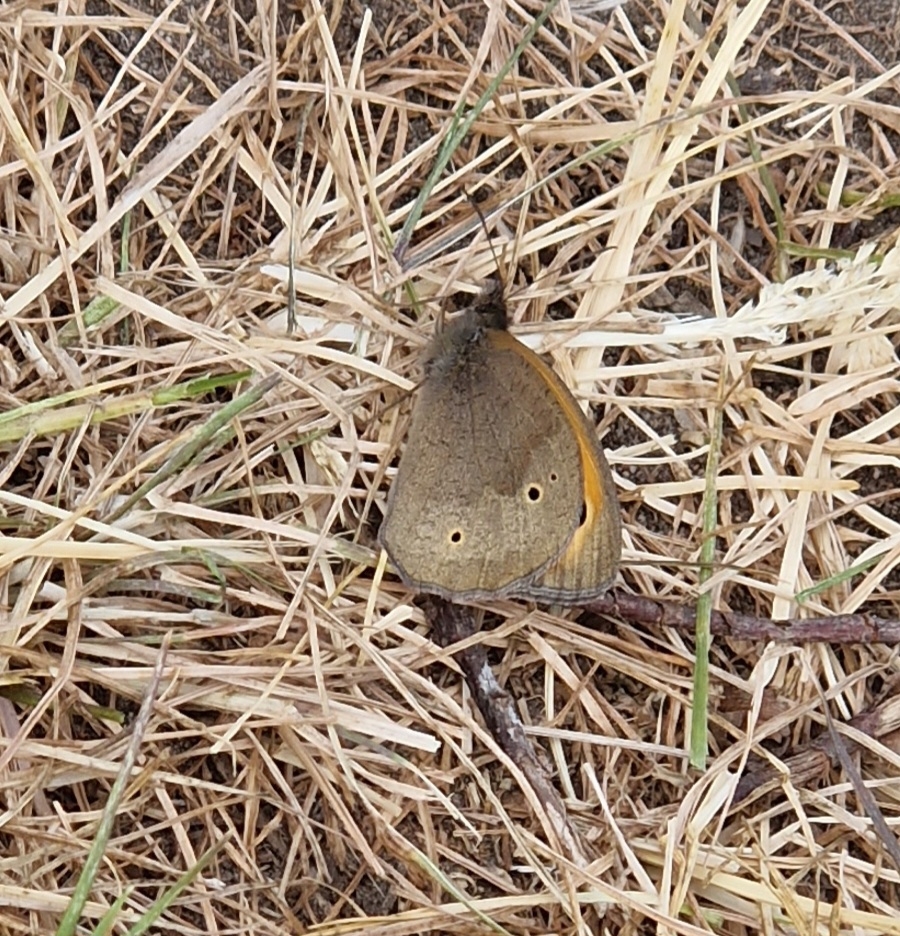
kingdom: Animalia
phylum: Arthropoda
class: Insecta
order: Lepidoptera
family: Nymphalidae
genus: Maniola
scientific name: Maniola jurtina
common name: Græsrandøje
